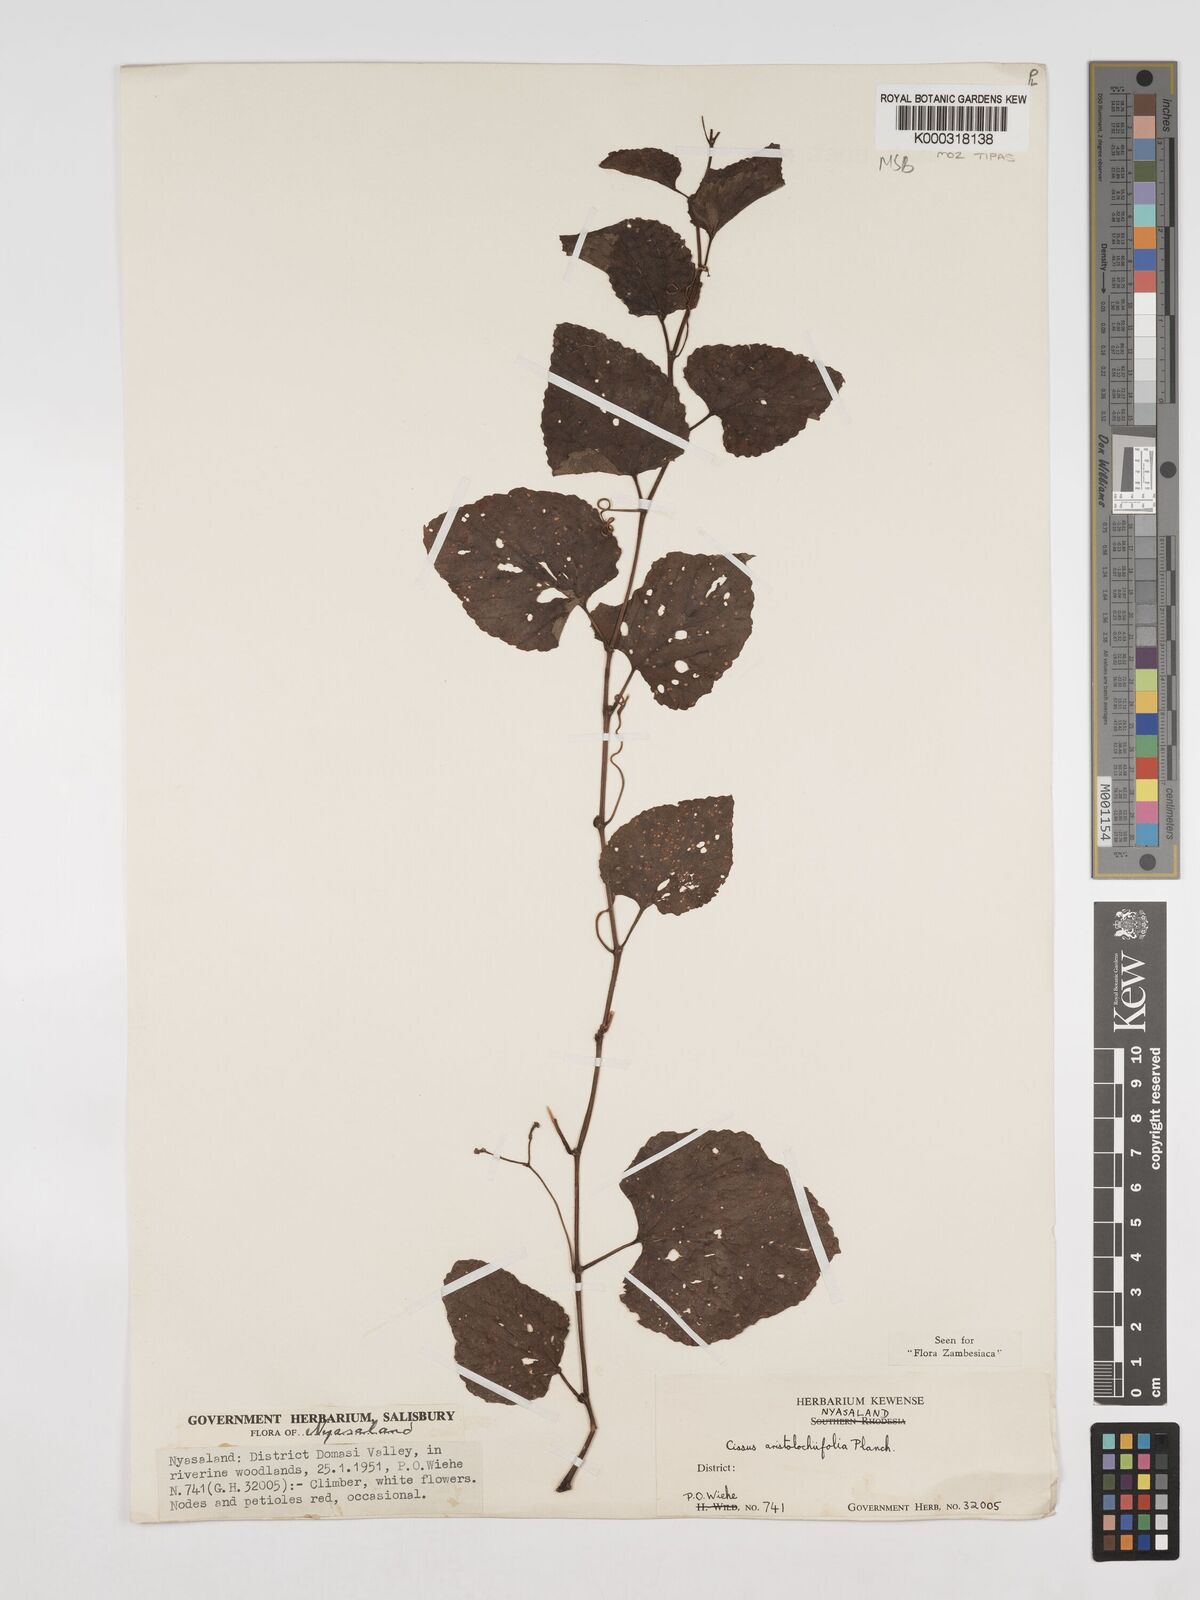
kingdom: Plantae
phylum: Tracheophyta
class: Magnoliopsida
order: Vitales
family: Vitaceae
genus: Cissus
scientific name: Cissus aristolochiifolia
